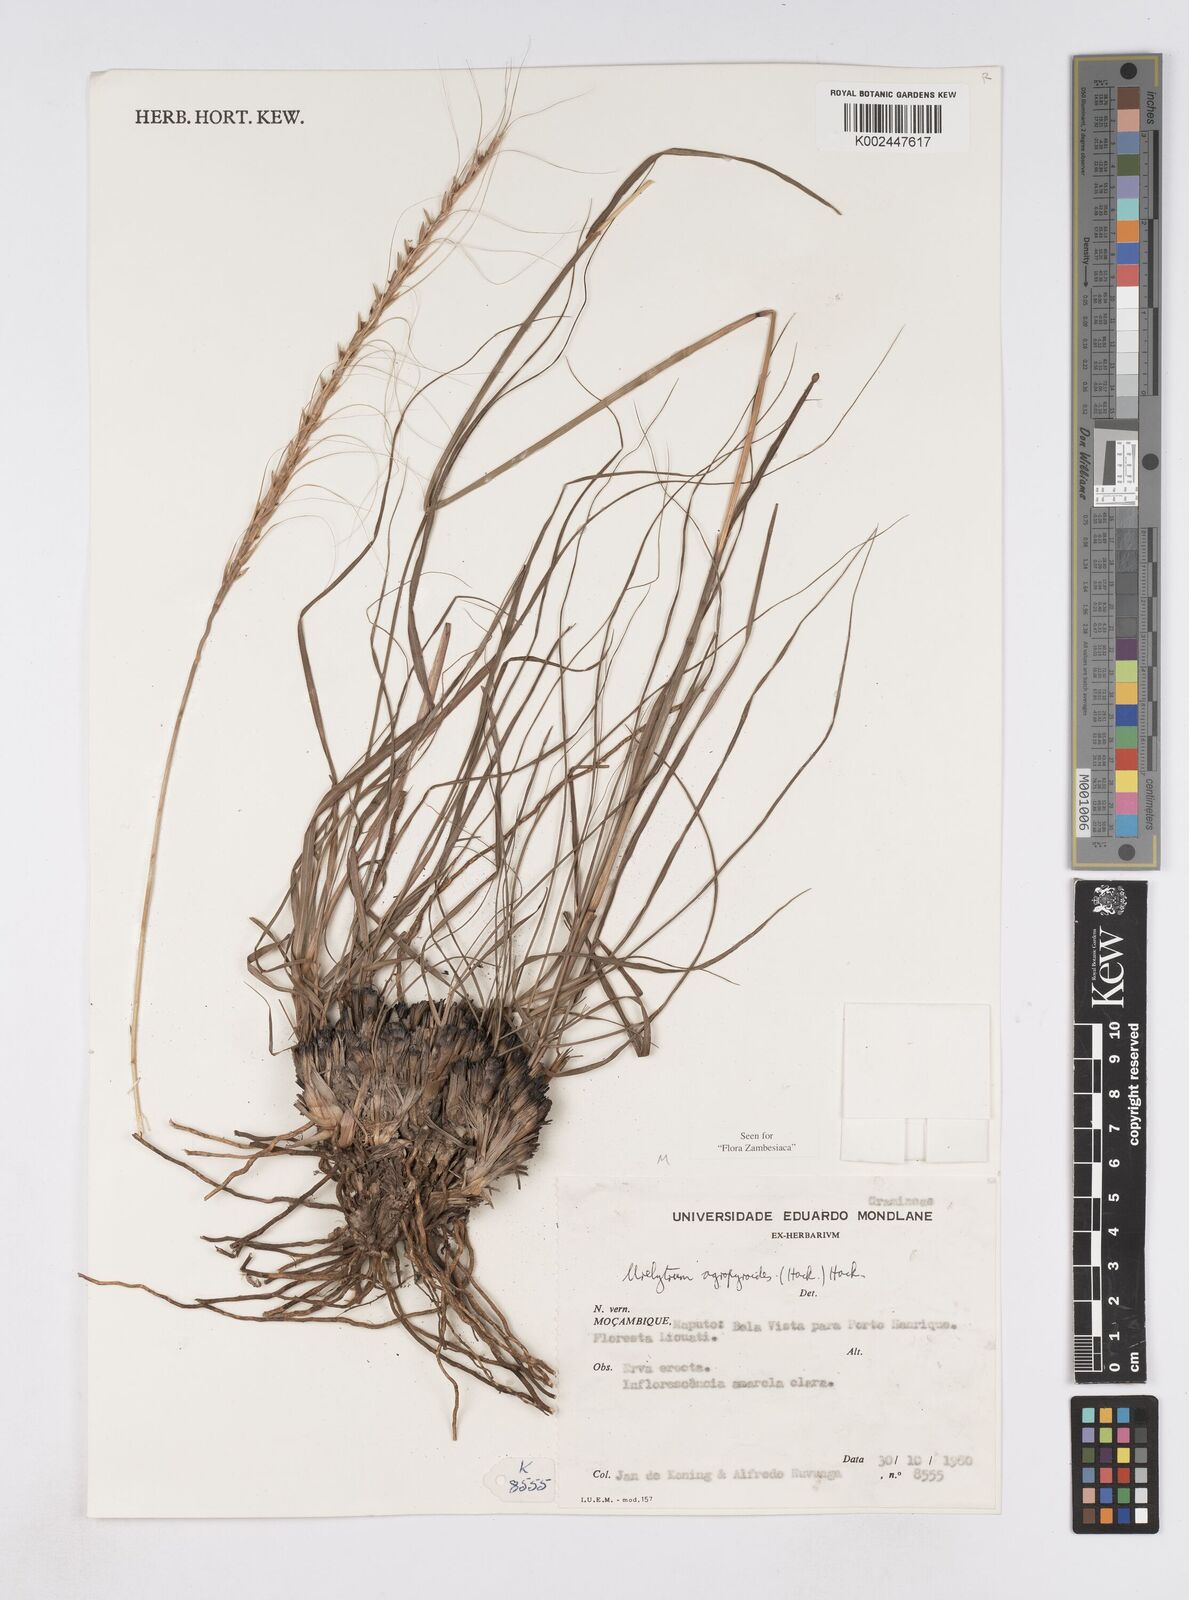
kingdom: Plantae
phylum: Tracheophyta
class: Liliopsida
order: Poales
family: Poaceae
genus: Urelytrum
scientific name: Urelytrum agropyroides
